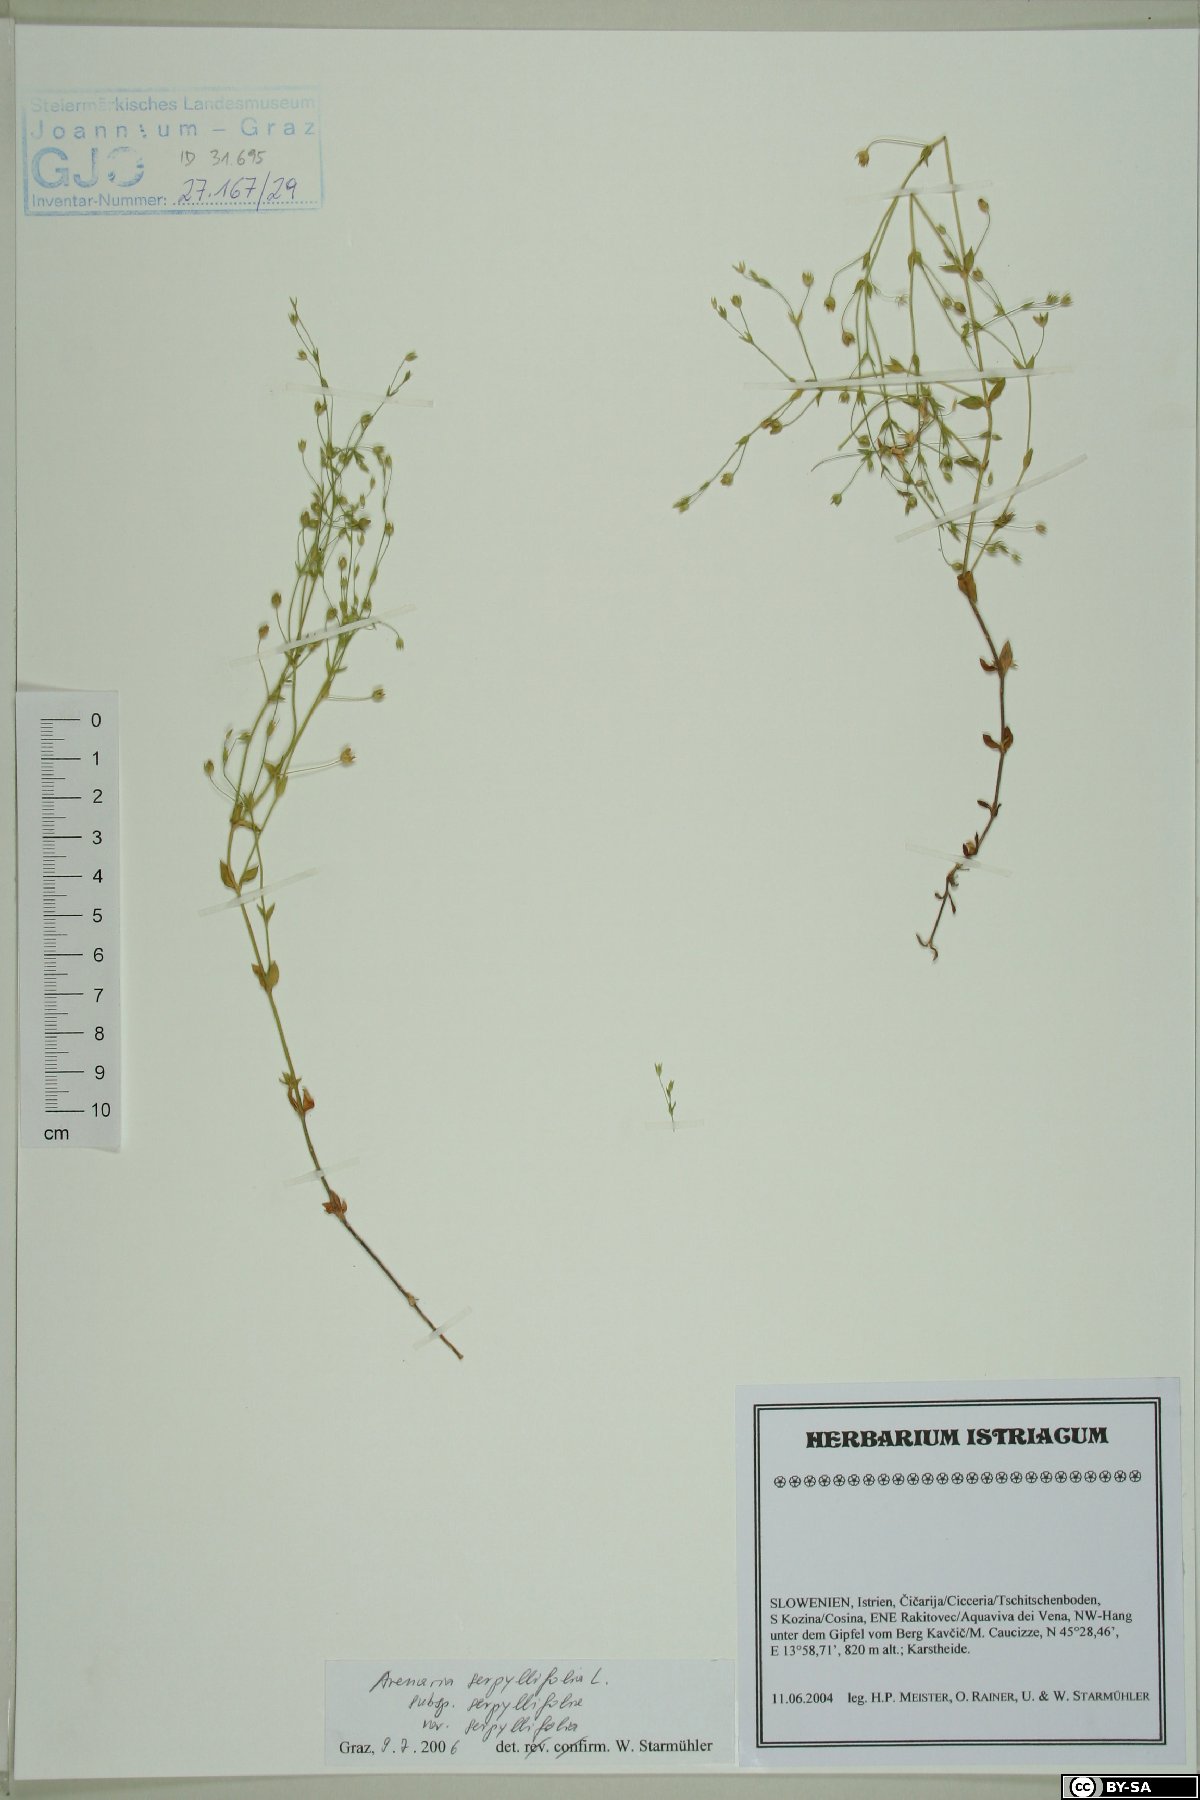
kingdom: Plantae
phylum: Tracheophyta
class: Magnoliopsida
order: Caryophyllales
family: Caryophyllaceae
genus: Arenaria
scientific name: Arenaria serpyllifolia
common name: Thyme-leaved sandwort
